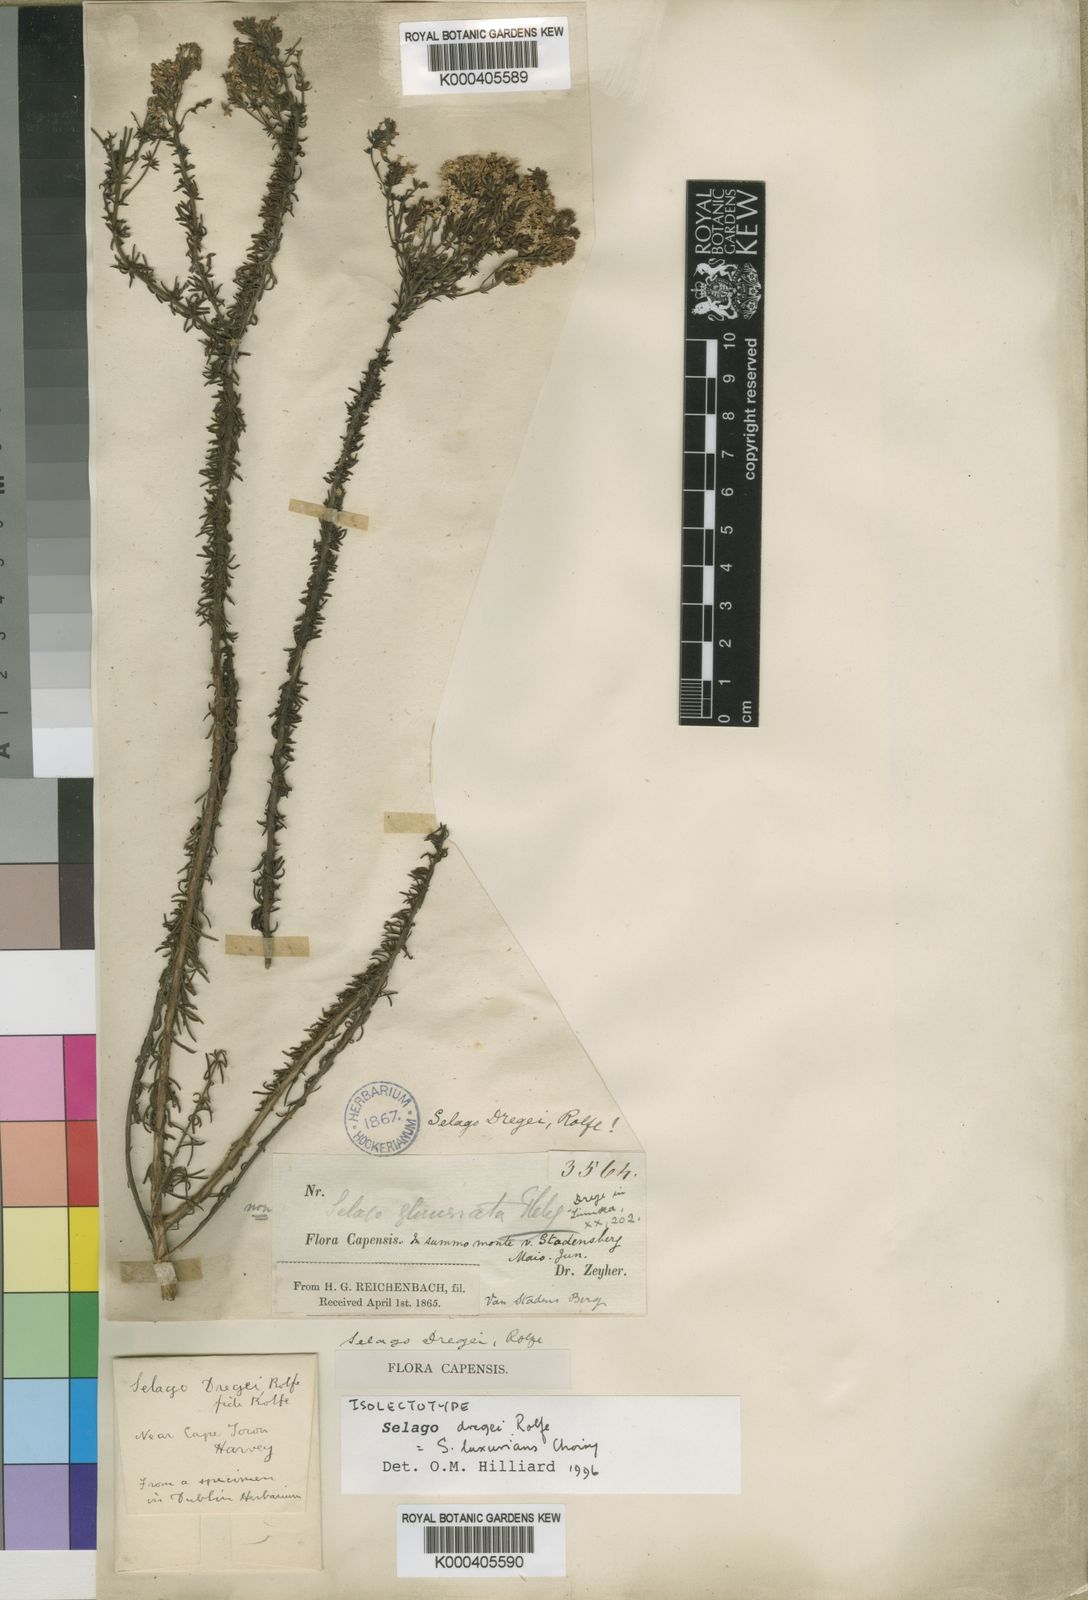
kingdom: Plantae
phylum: Tracheophyta
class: Magnoliopsida
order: Lamiales
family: Scrophulariaceae
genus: Selago
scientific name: Selago luxurians
